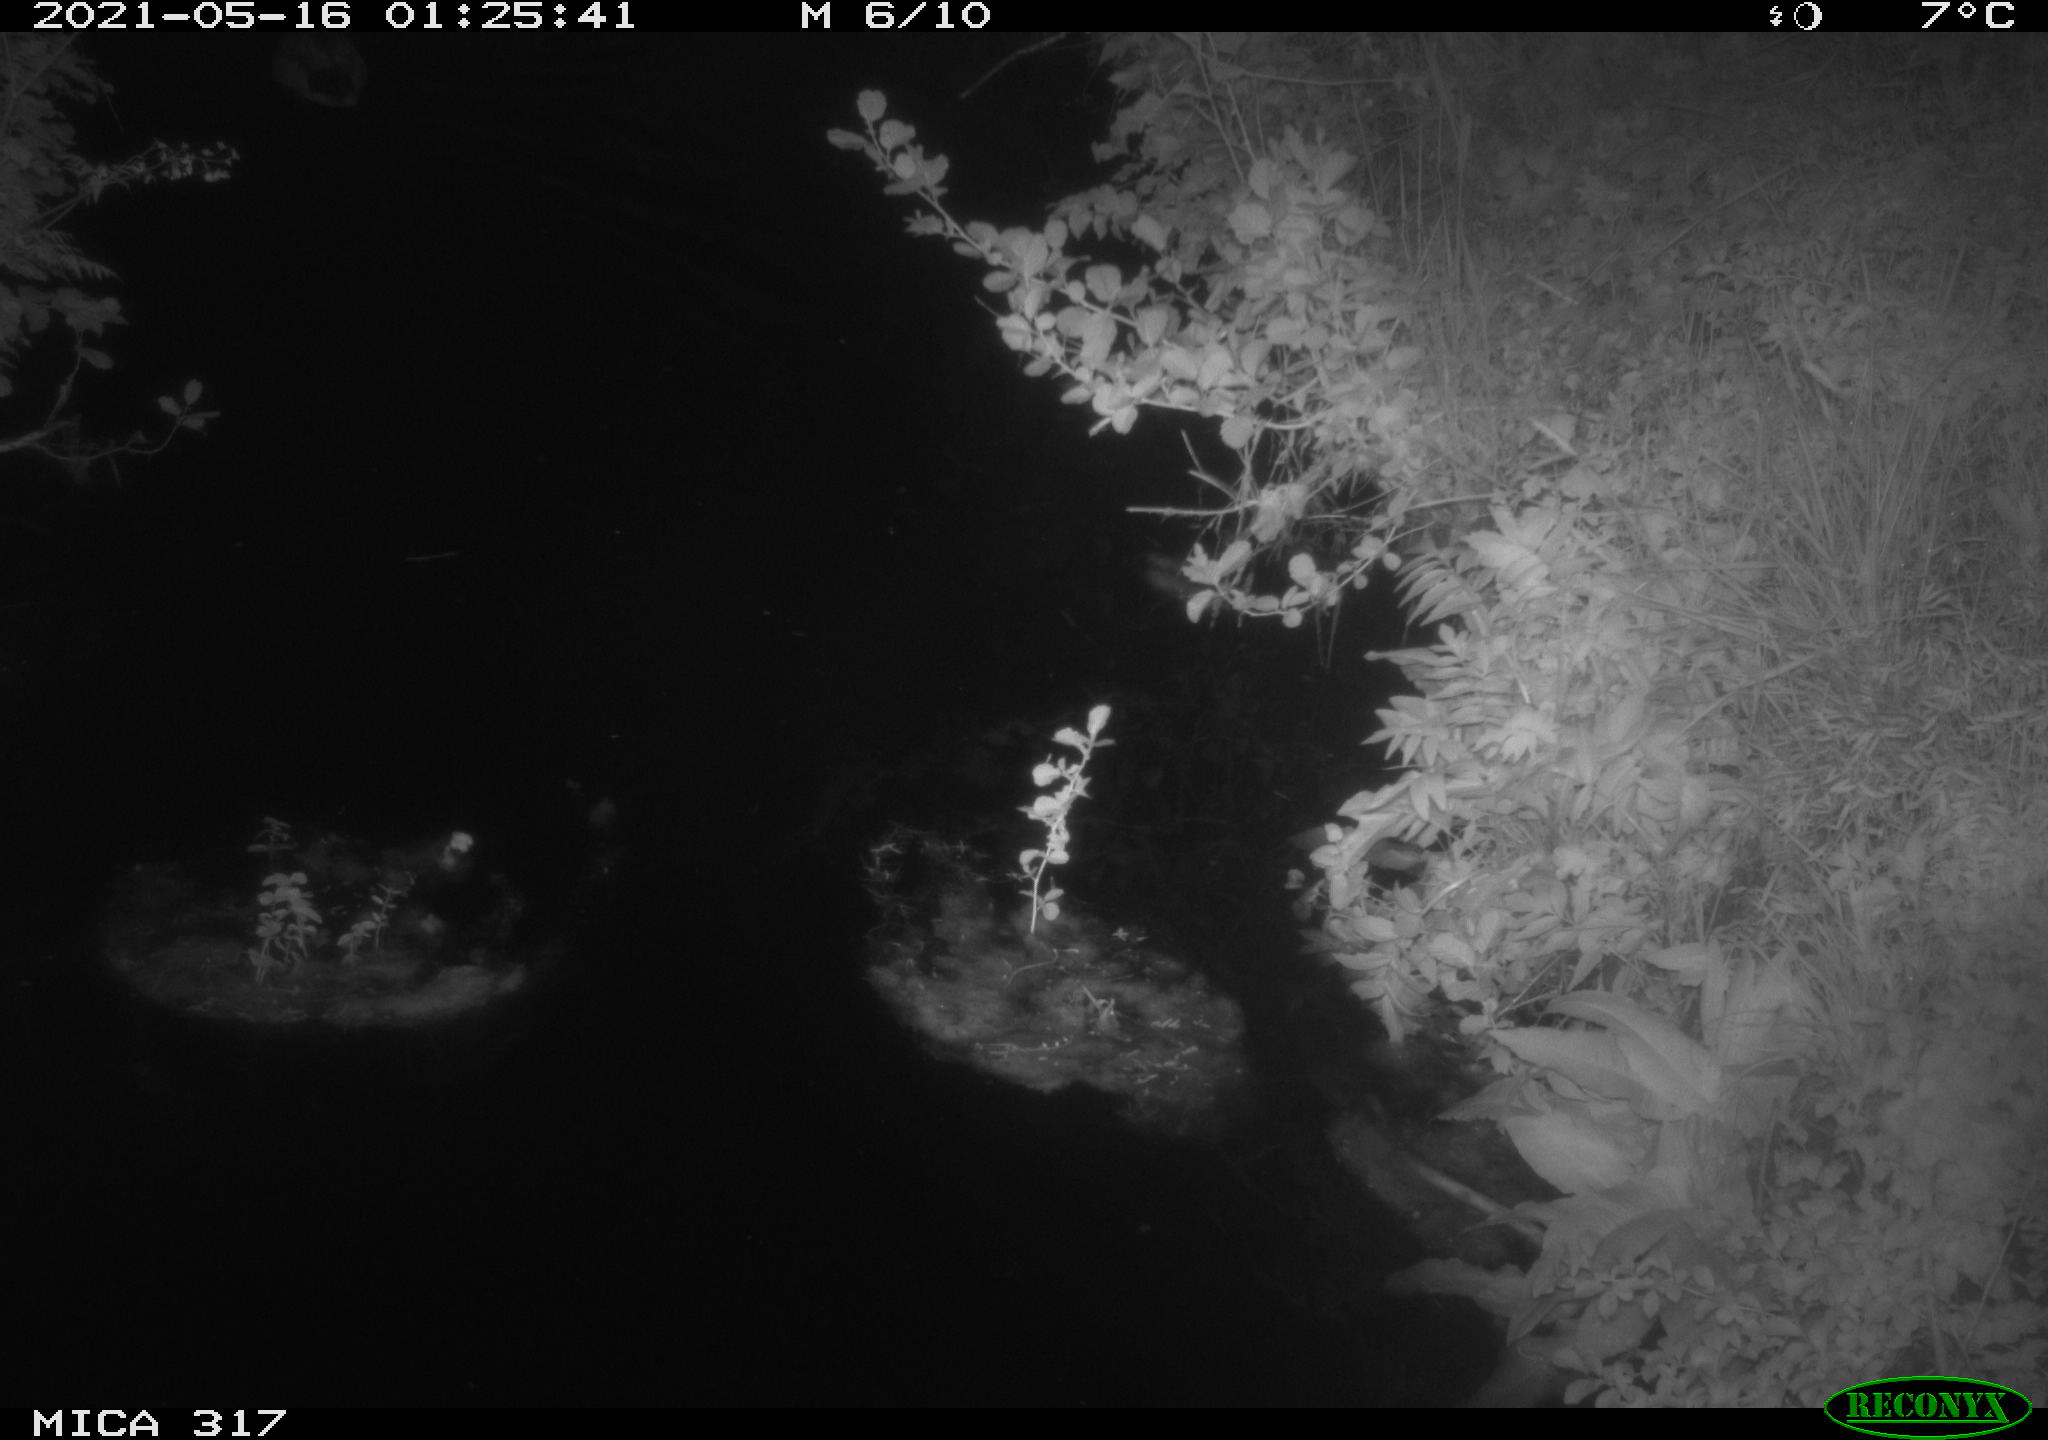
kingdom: Animalia
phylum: Chordata
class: Aves
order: Anseriformes
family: Anatidae
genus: Anas
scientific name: Anas
